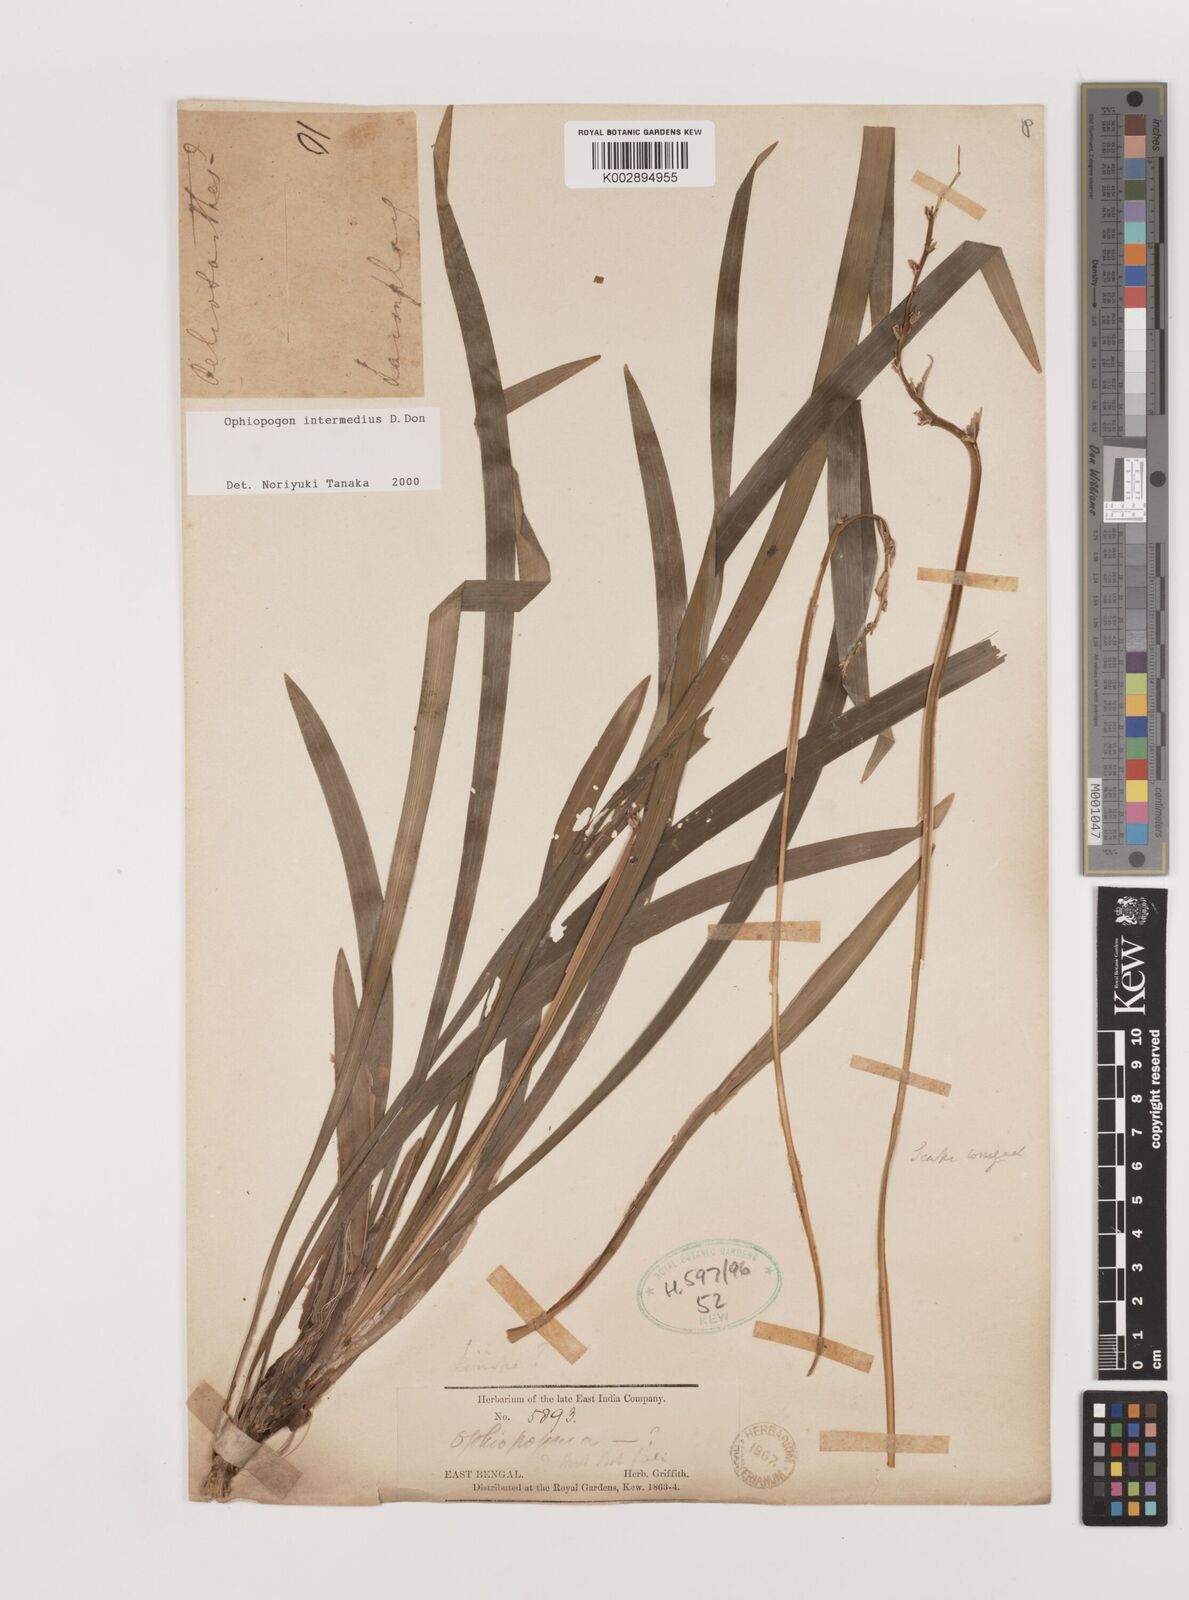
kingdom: Plantae
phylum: Tracheophyta
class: Liliopsida
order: Asparagales
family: Asparagaceae
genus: Ophiopogon
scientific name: Ophiopogon intermedius
